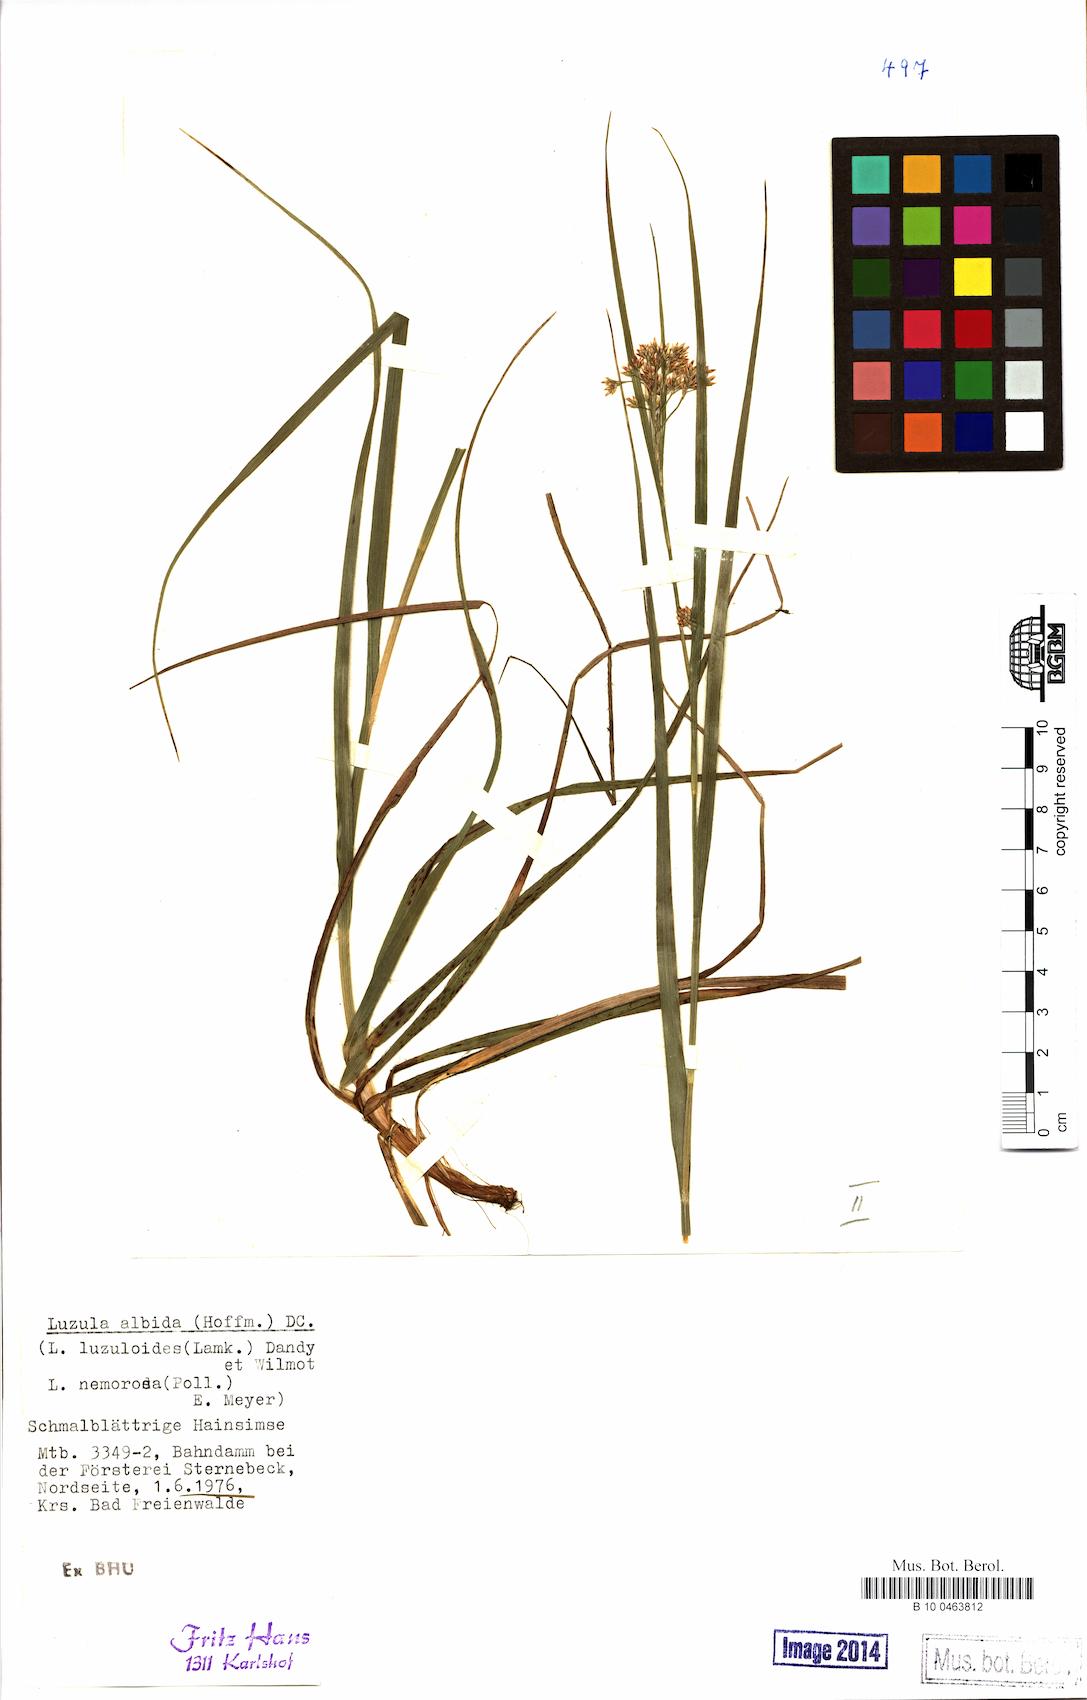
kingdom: Plantae
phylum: Tracheophyta
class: Liliopsida
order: Poales
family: Juncaceae
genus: Luzula
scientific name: Luzula luzuloides
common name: White wood-rush
